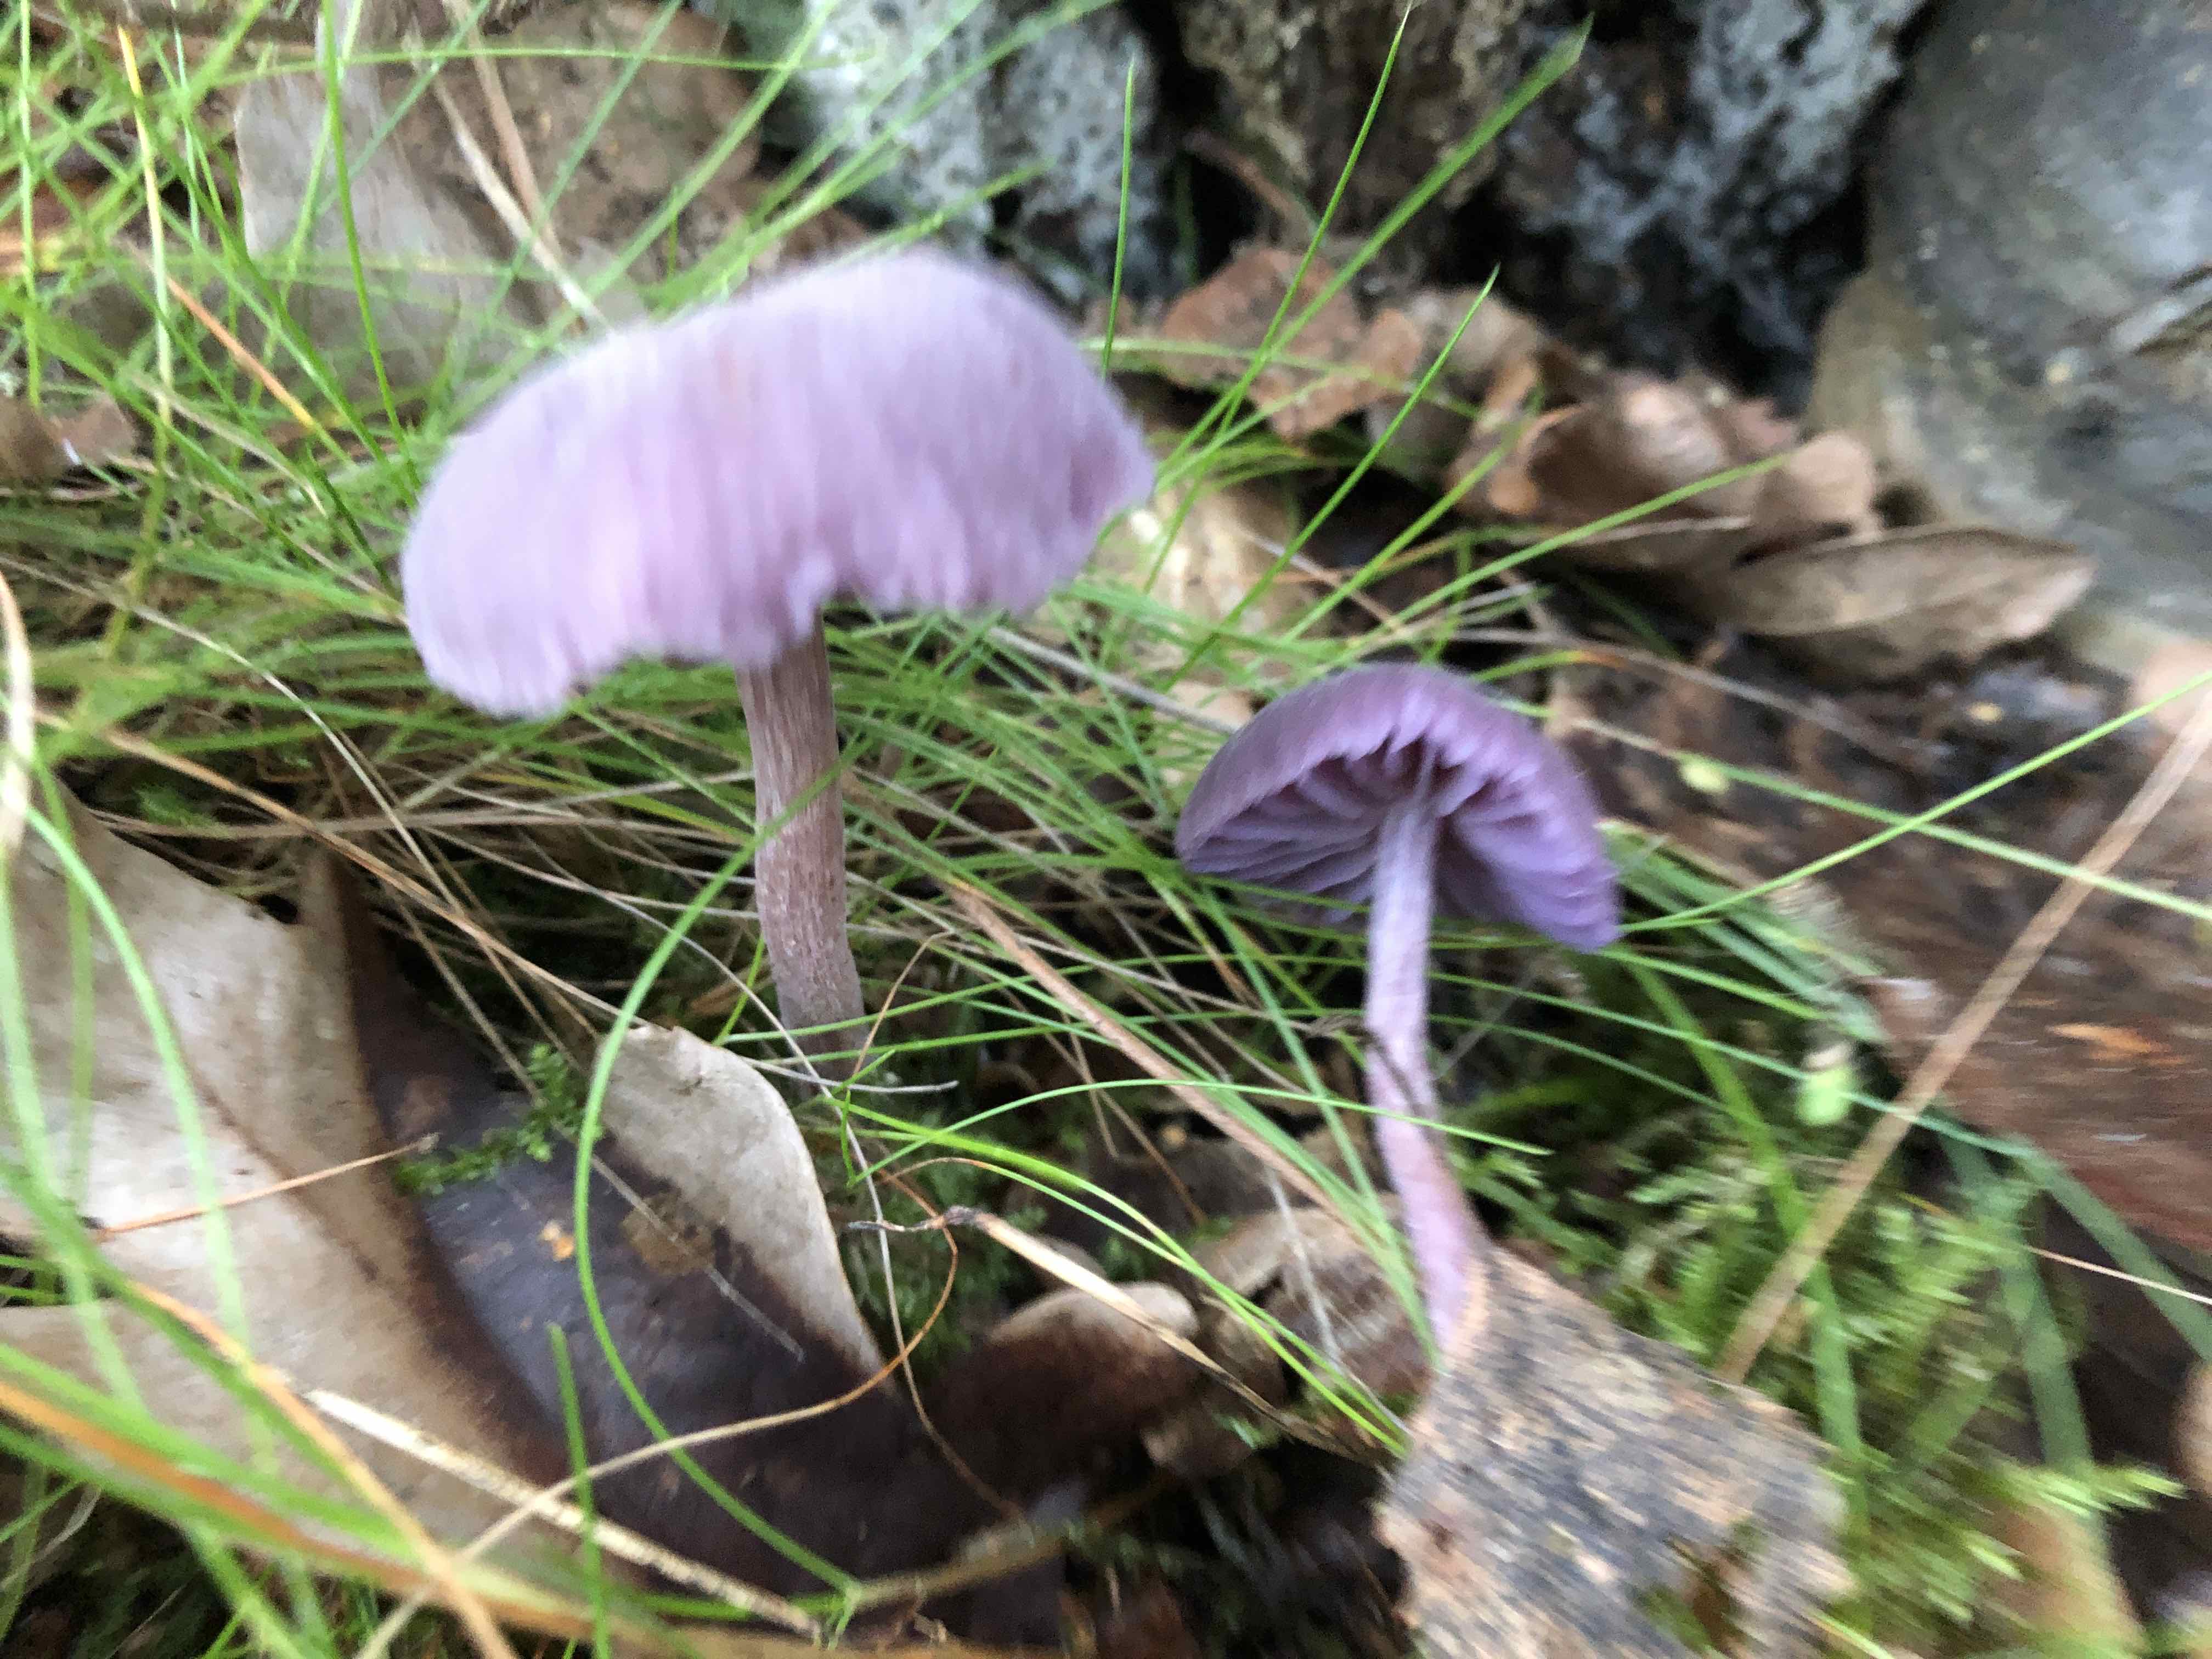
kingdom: Fungi
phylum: Basidiomycota
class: Agaricomycetes
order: Agaricales
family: Hydnangiaceae
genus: Laccaria
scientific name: Laccaria amethystina
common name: violet ametysthat
